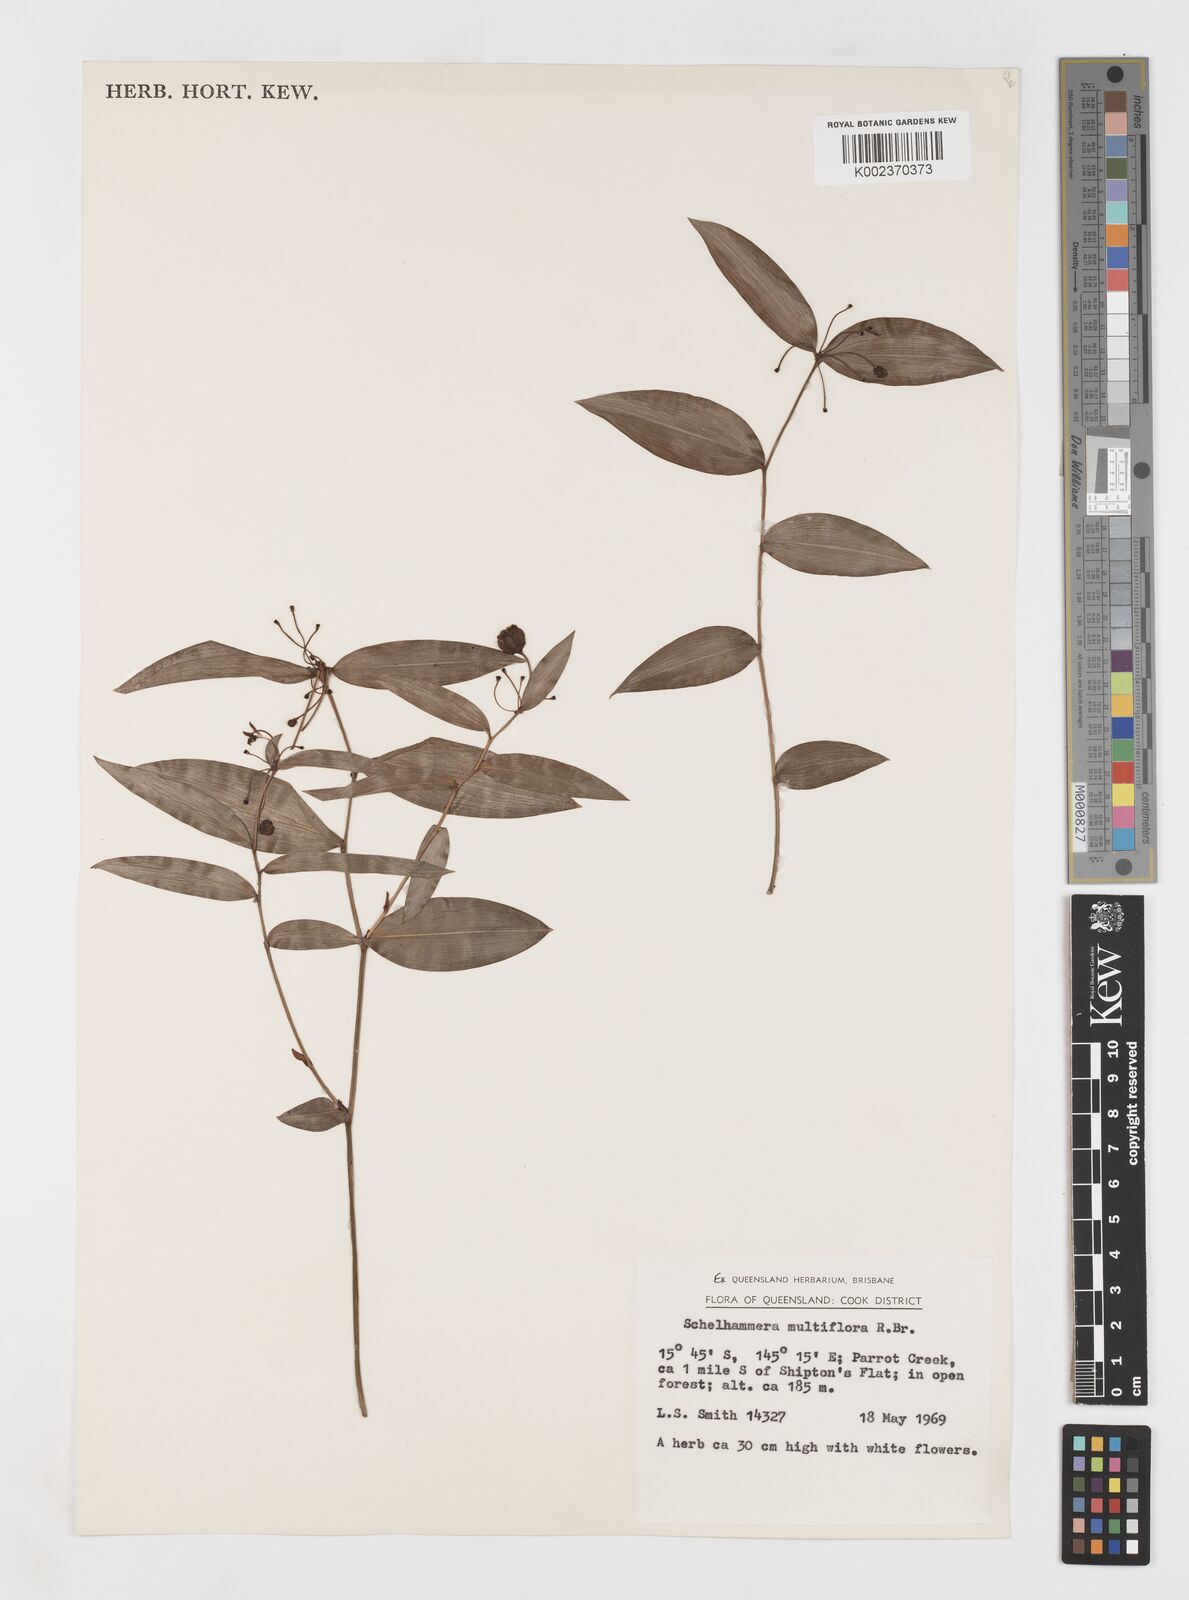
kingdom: Plantae
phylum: Tracheophyta
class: Liliopsida
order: Liliales
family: Colchicaceae
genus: Schelhammera
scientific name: Schelhammera multiflora
